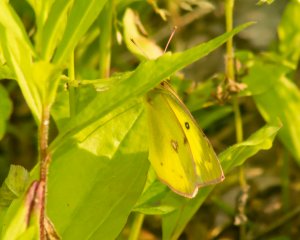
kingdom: Animalia
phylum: Arthropoda
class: Insecta
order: Lepidoptera
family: Pieridae
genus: Colias
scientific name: Colias philodice
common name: Clouded Sulphur
